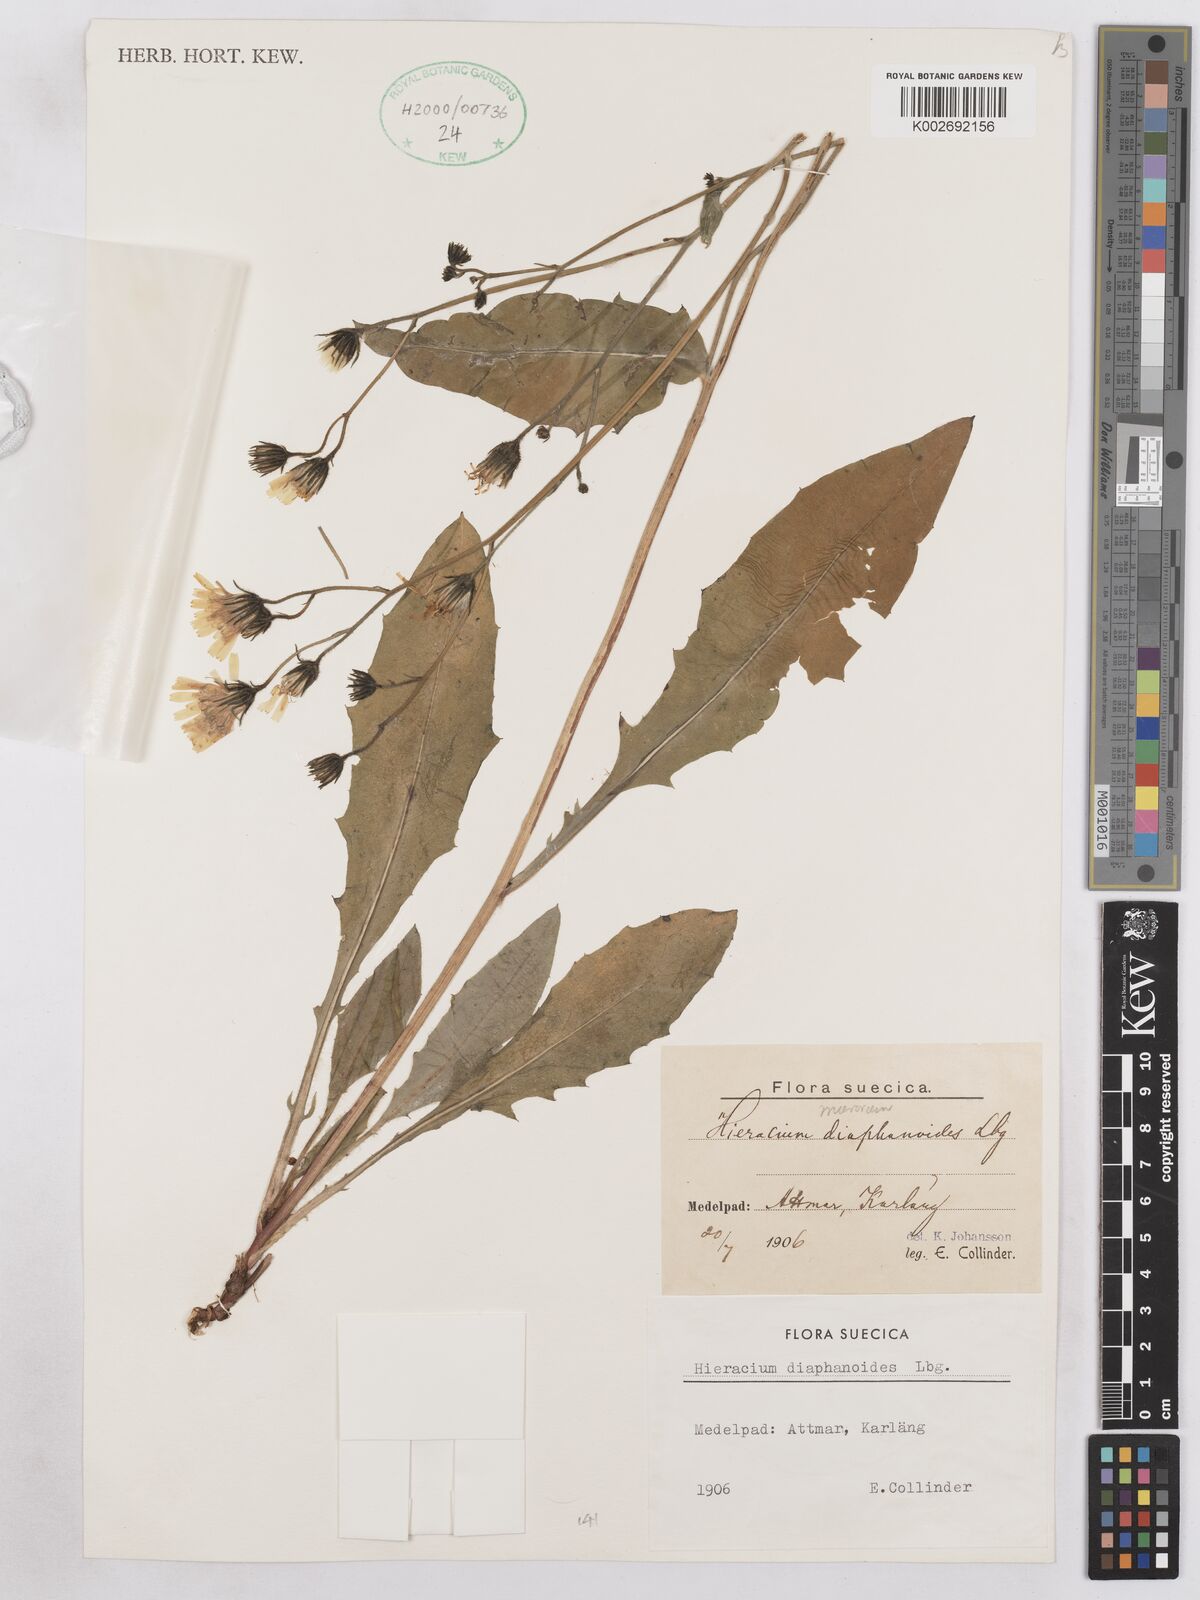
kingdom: Plantae
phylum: Tracheophyta
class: Magnoliopsida
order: Asterales
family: Asteraceae
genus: Hieracium
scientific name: Hieracium diaphanoides
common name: Fine-bracted hawkweed
